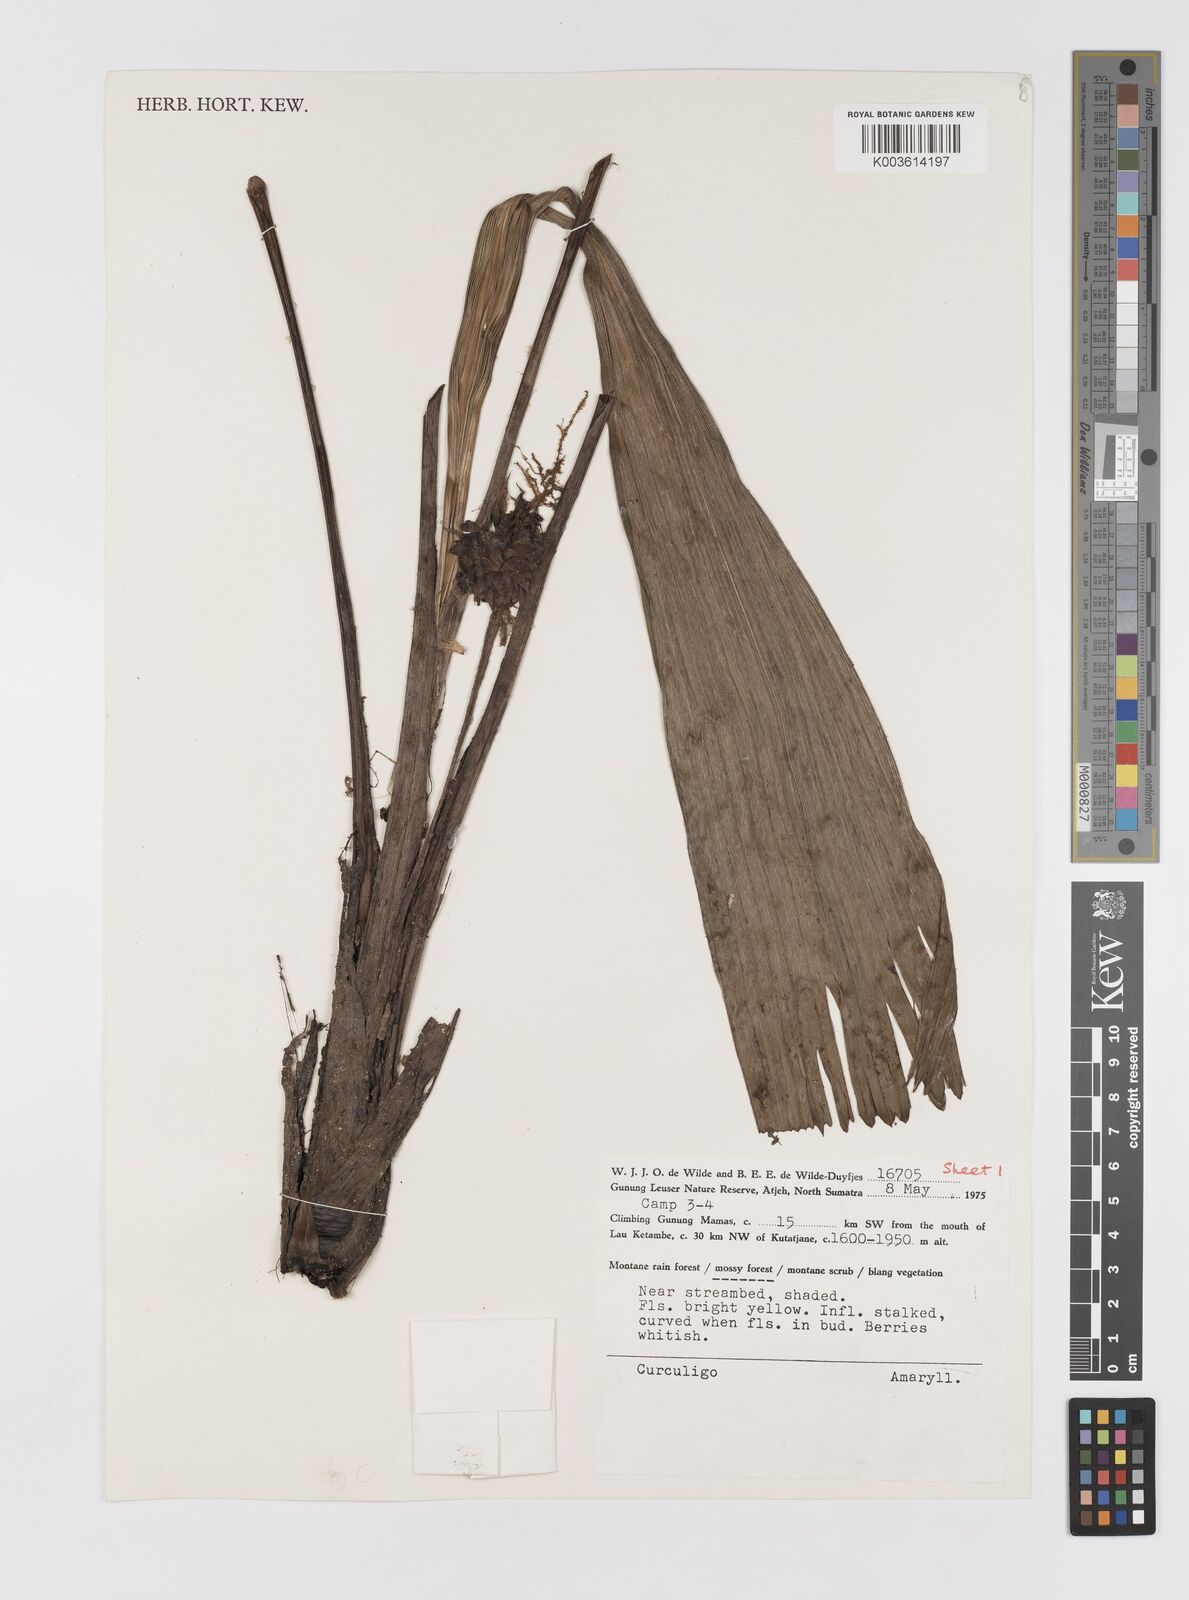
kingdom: Plantae
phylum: Tracheophyta
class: Liliopsida
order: Asparagales
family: Hypoxidaceae
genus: Curculigo
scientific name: Curculigo
